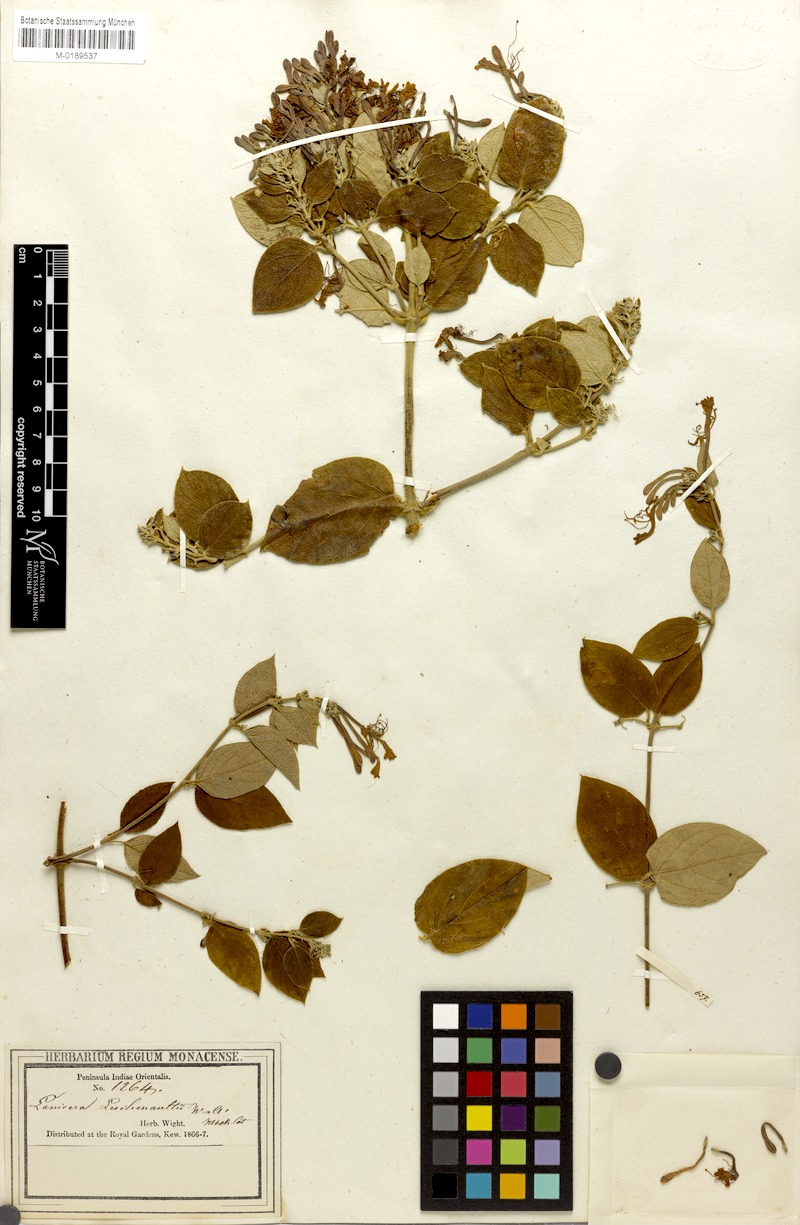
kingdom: Plantae
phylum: Tracheophyta
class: Magnoliopsida
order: Dipsacales
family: Caprifoliaceae
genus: Lonicera
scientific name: Lonicera leschenaultii
